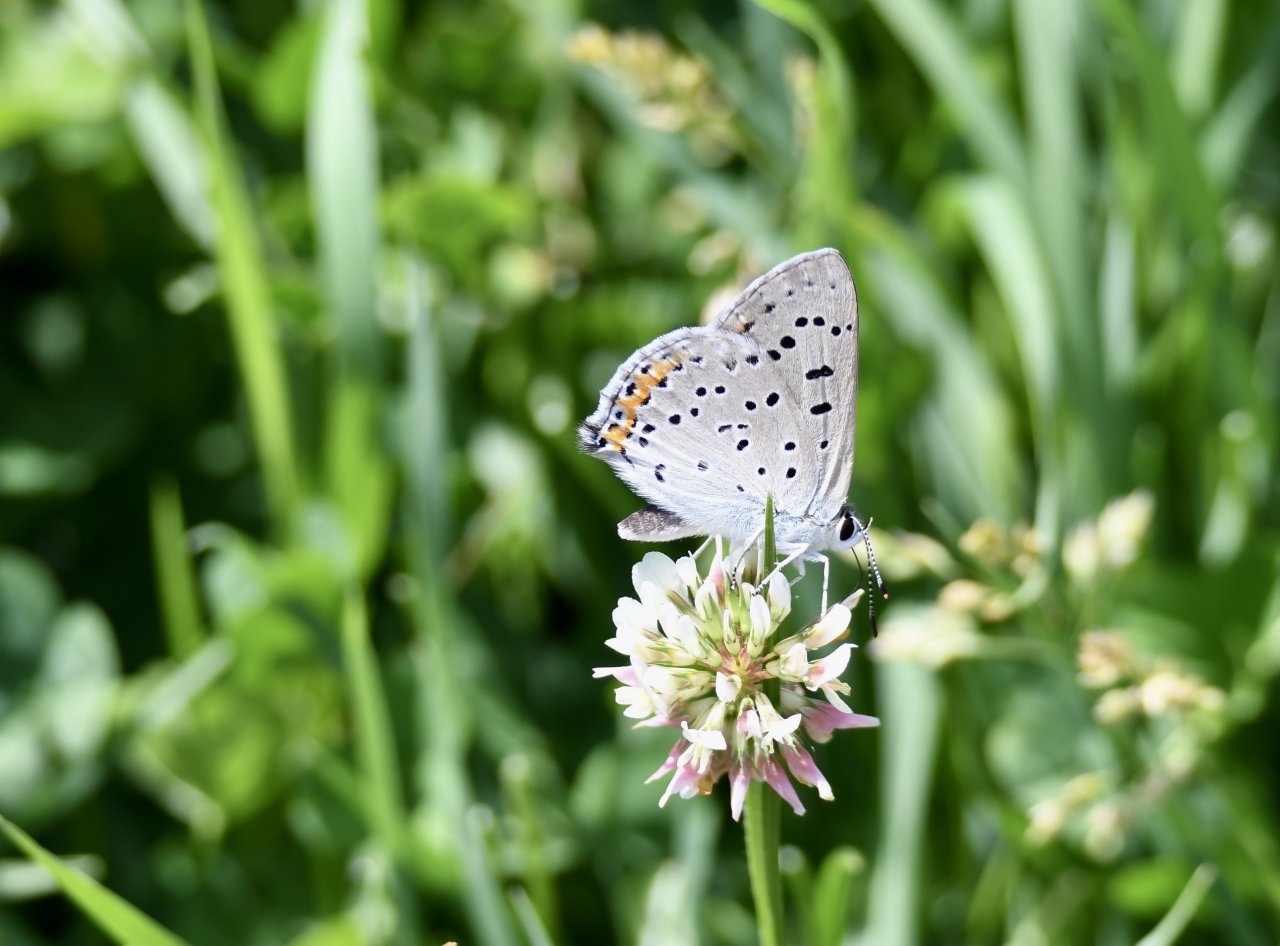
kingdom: Animalia
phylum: Arthropoda
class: Insecta
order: Lepidoptera
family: Lycaenidae
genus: Lycaeides
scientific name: Lycaeides melissa
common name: Melissa Blue
